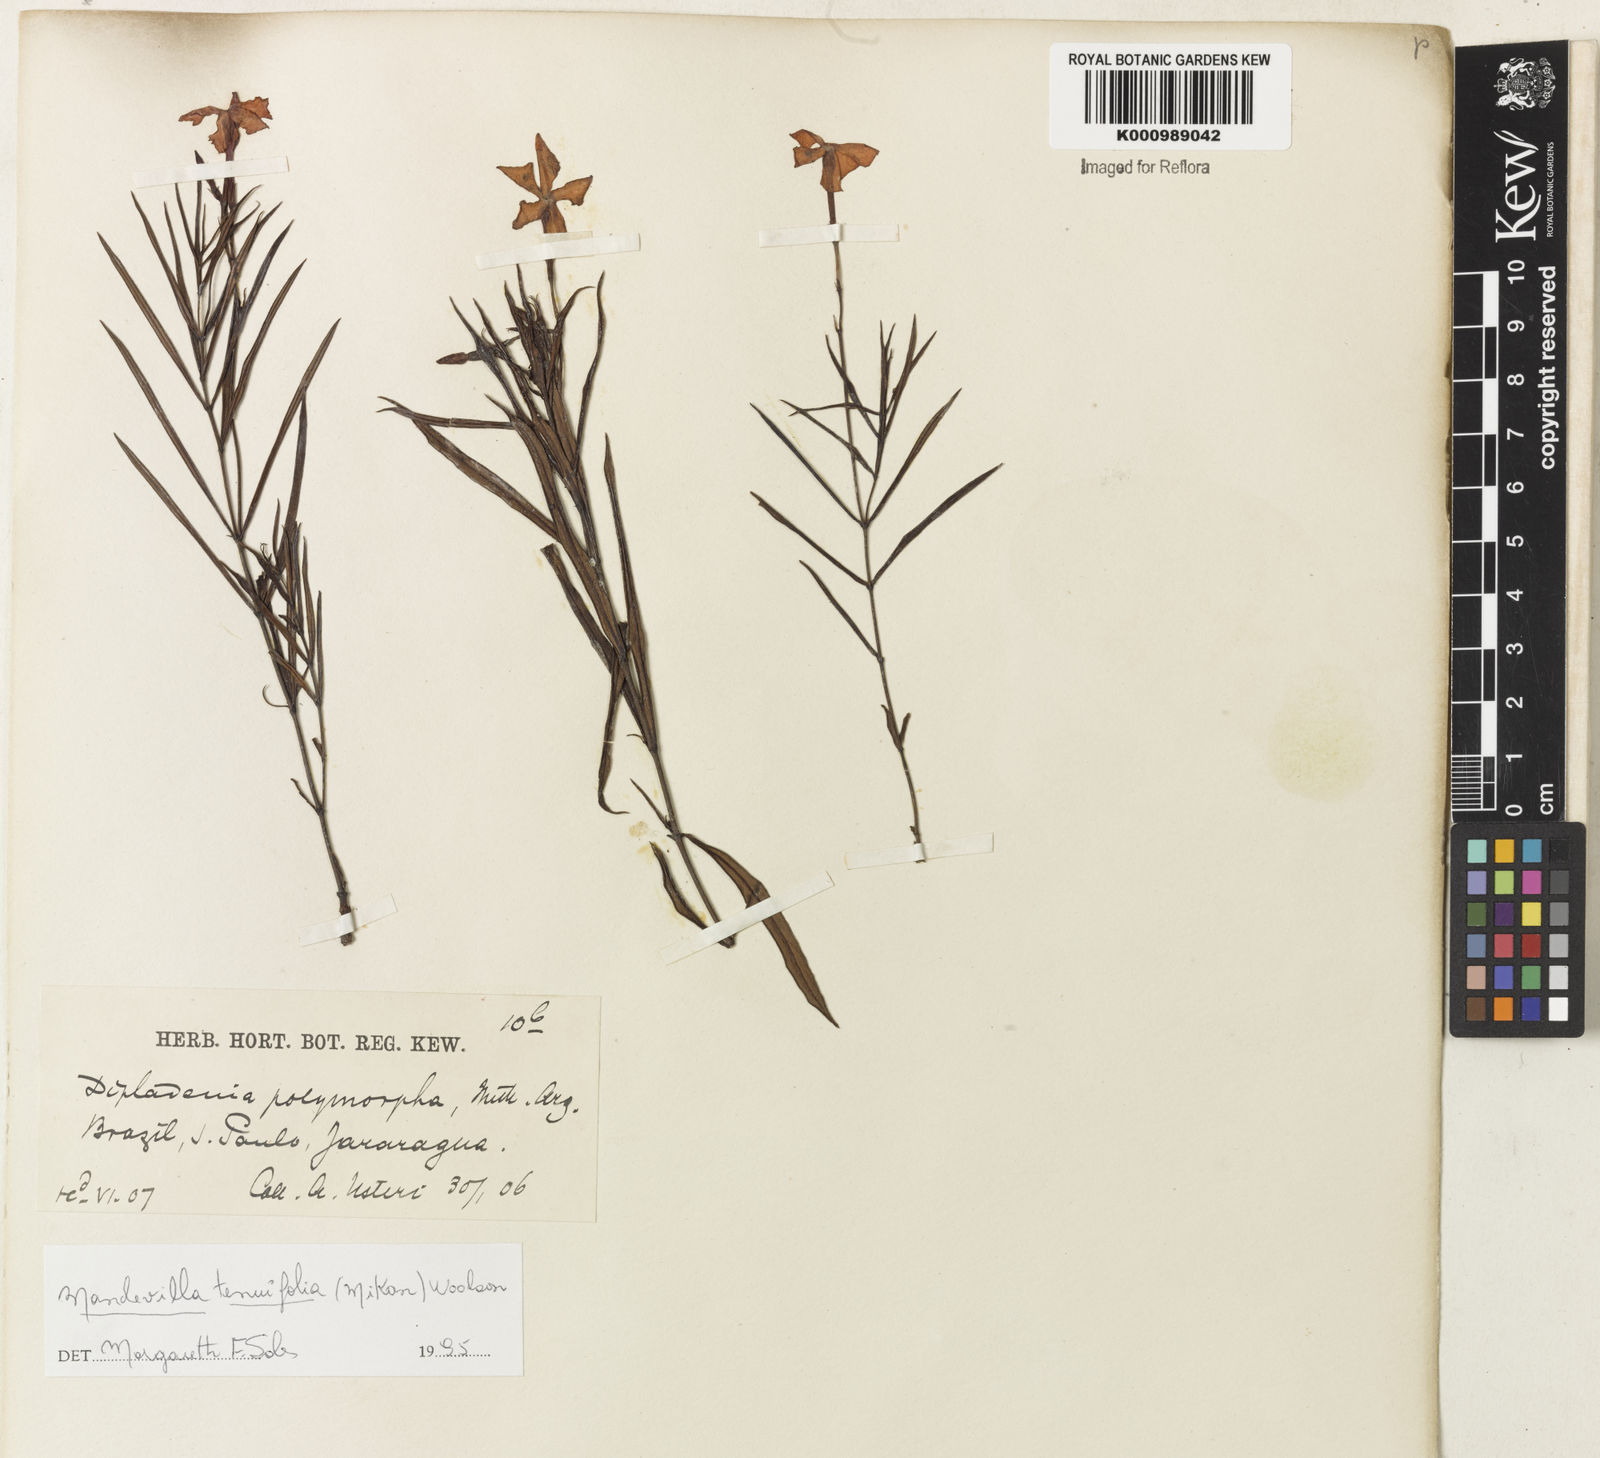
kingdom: Plantae
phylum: Tracheophyta
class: Magnoliopsida
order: Gentianales
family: Apocynaceae
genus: Mandevilla
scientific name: Mandevilla tenuifolia
